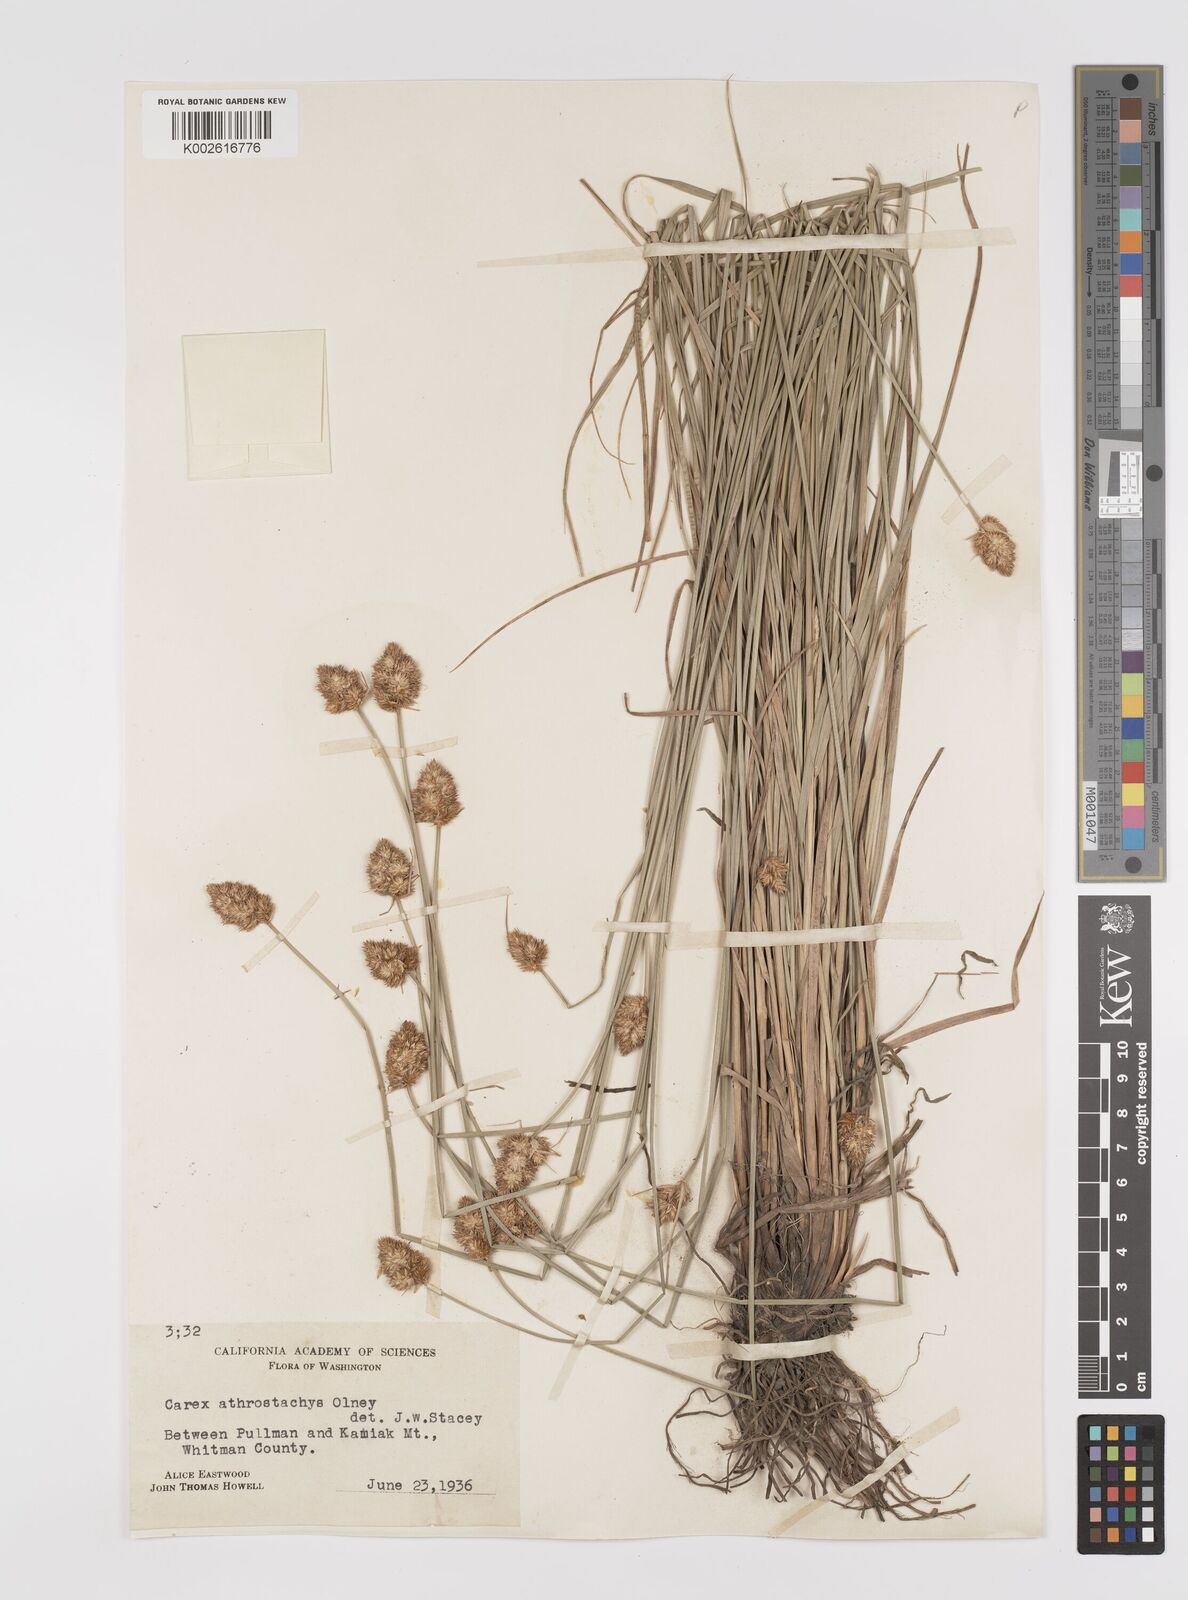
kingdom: Plantae
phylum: Tracheophyta
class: Liliopsida
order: Poales
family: Cyperaceae
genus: Carex
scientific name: Carex athrostachya
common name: Slenderbeak sedge
